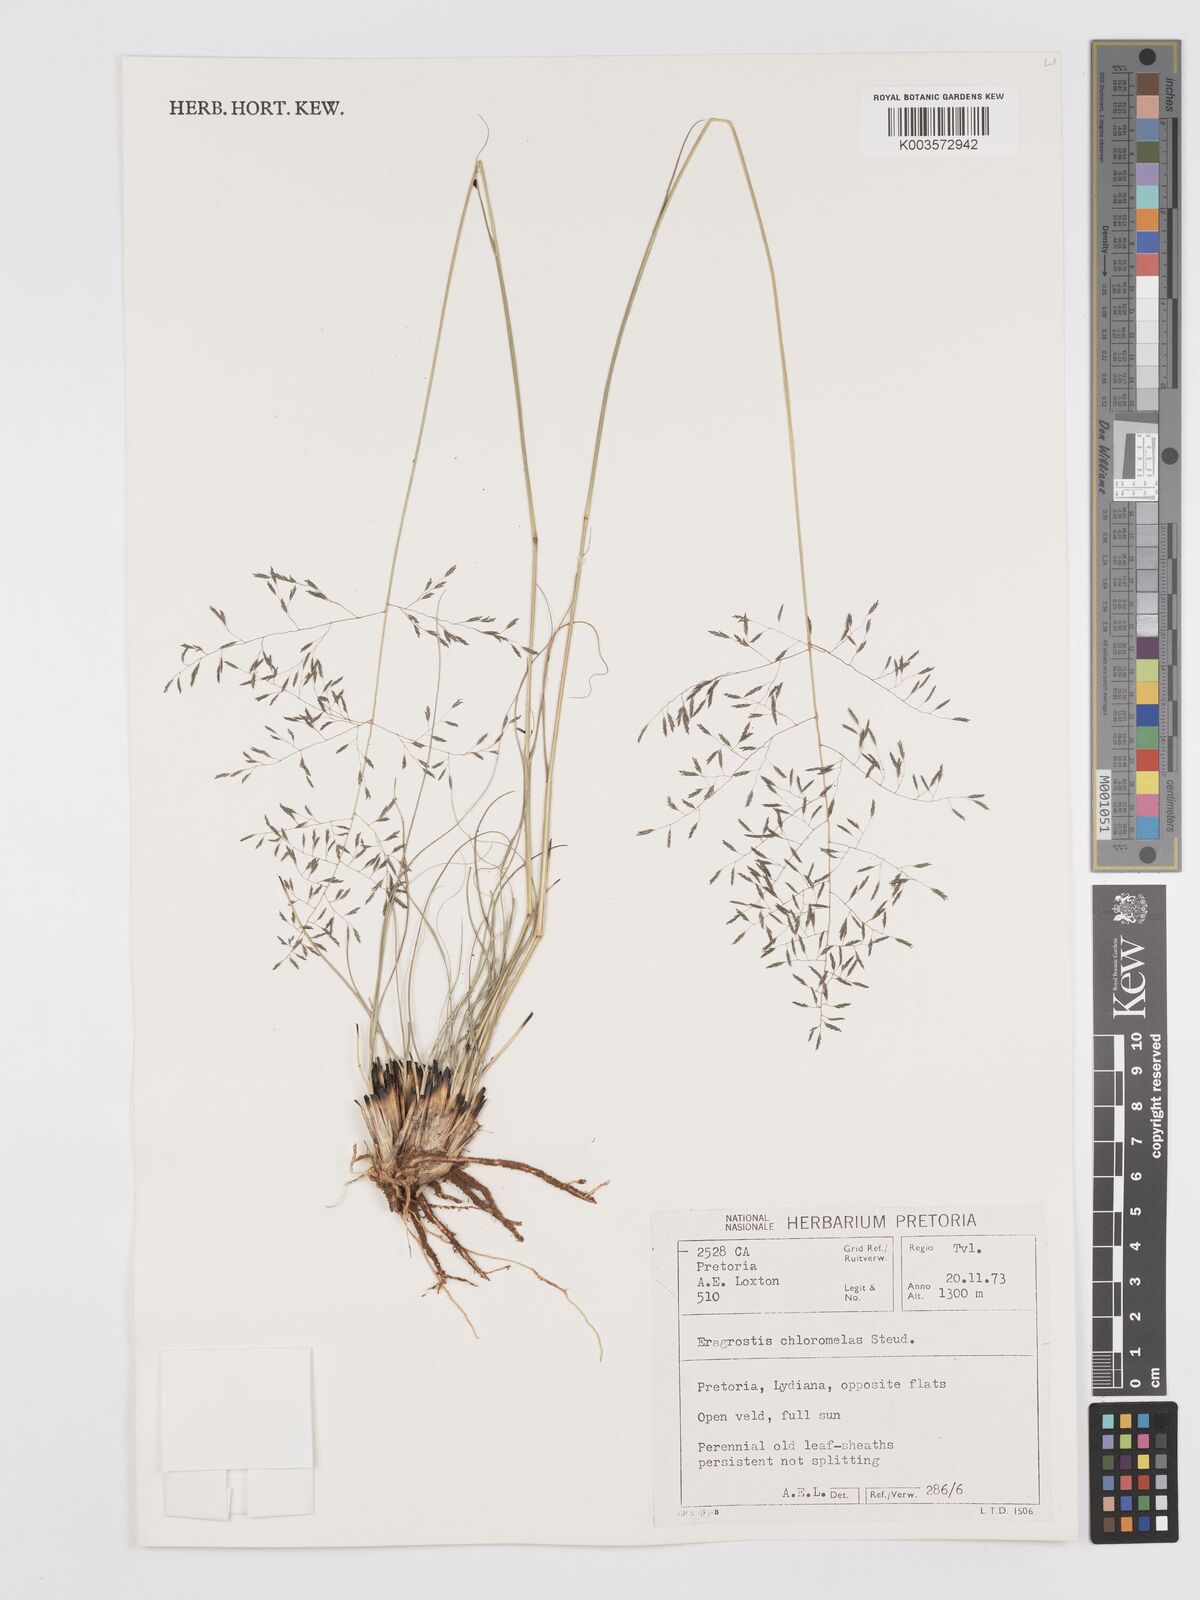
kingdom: Plantae
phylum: Tracheophyta
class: Liliopsida
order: Poales
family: Poaceae
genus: Eragrostis
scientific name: Eragrostis curvula
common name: African love-grass
